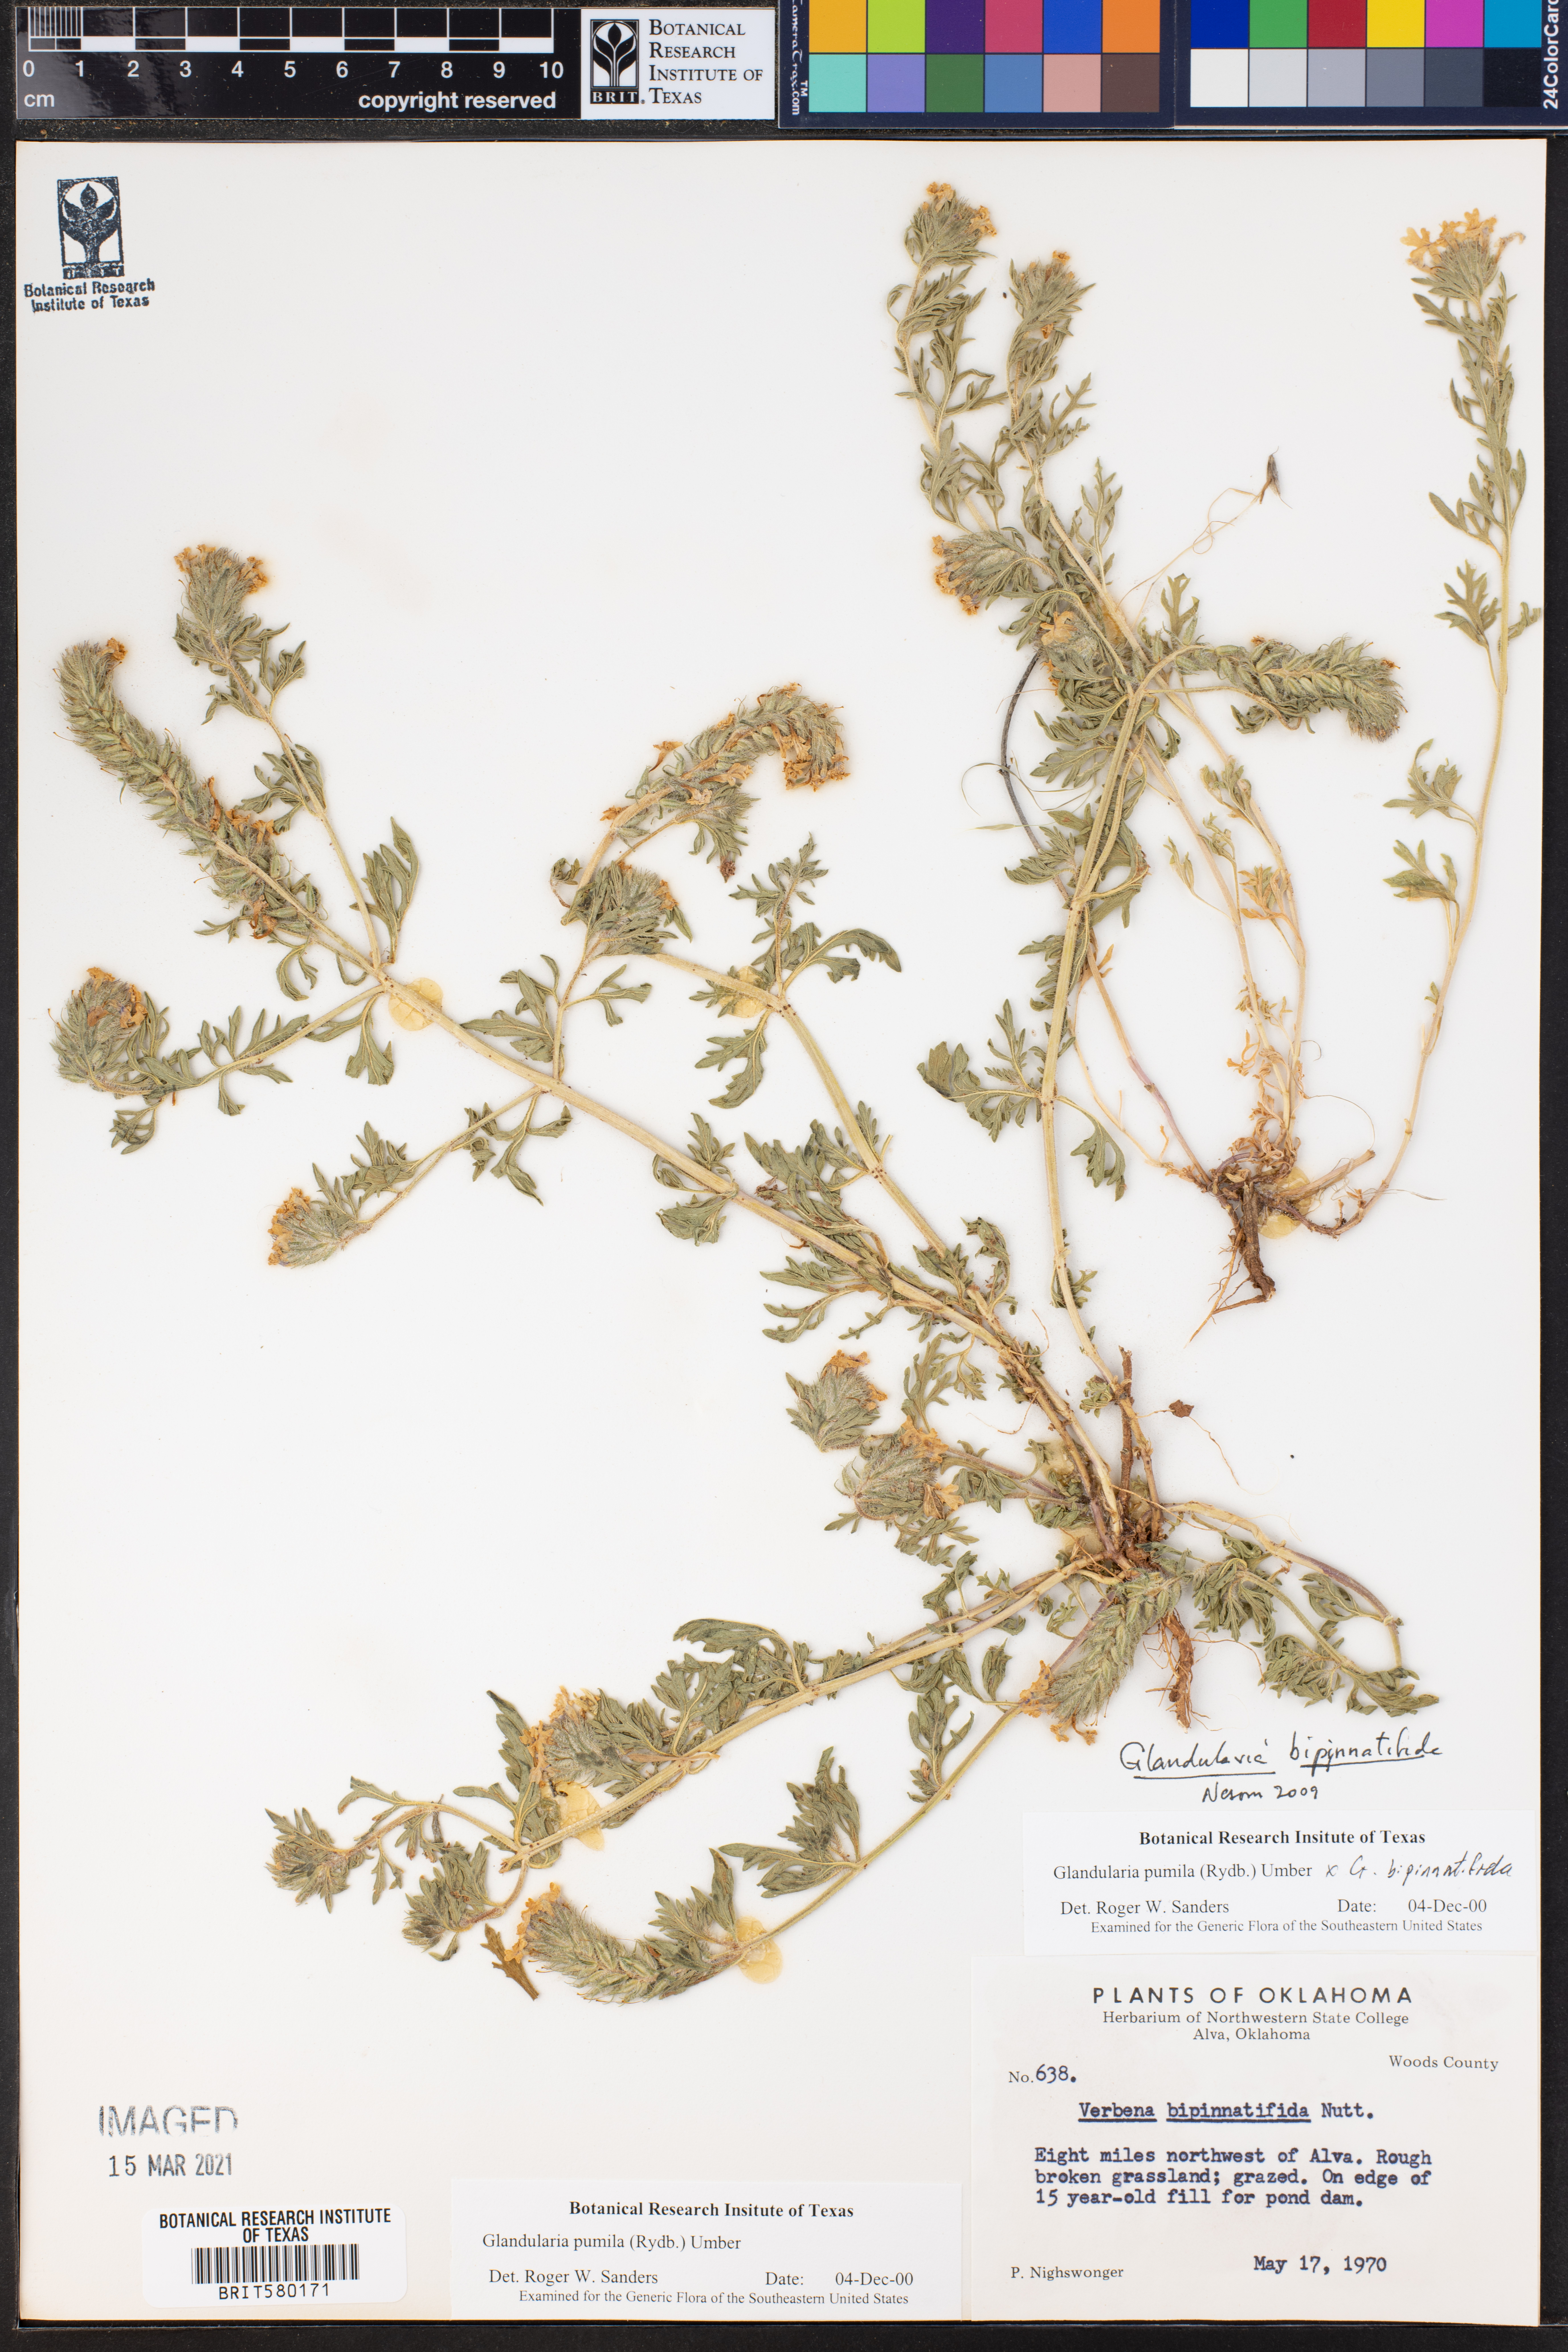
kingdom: Plantae
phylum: Tracheophyta
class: Magnoliopsida
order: Lamiales
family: Verbenaceae
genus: Verbena
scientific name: Verbena bipinnatifida
